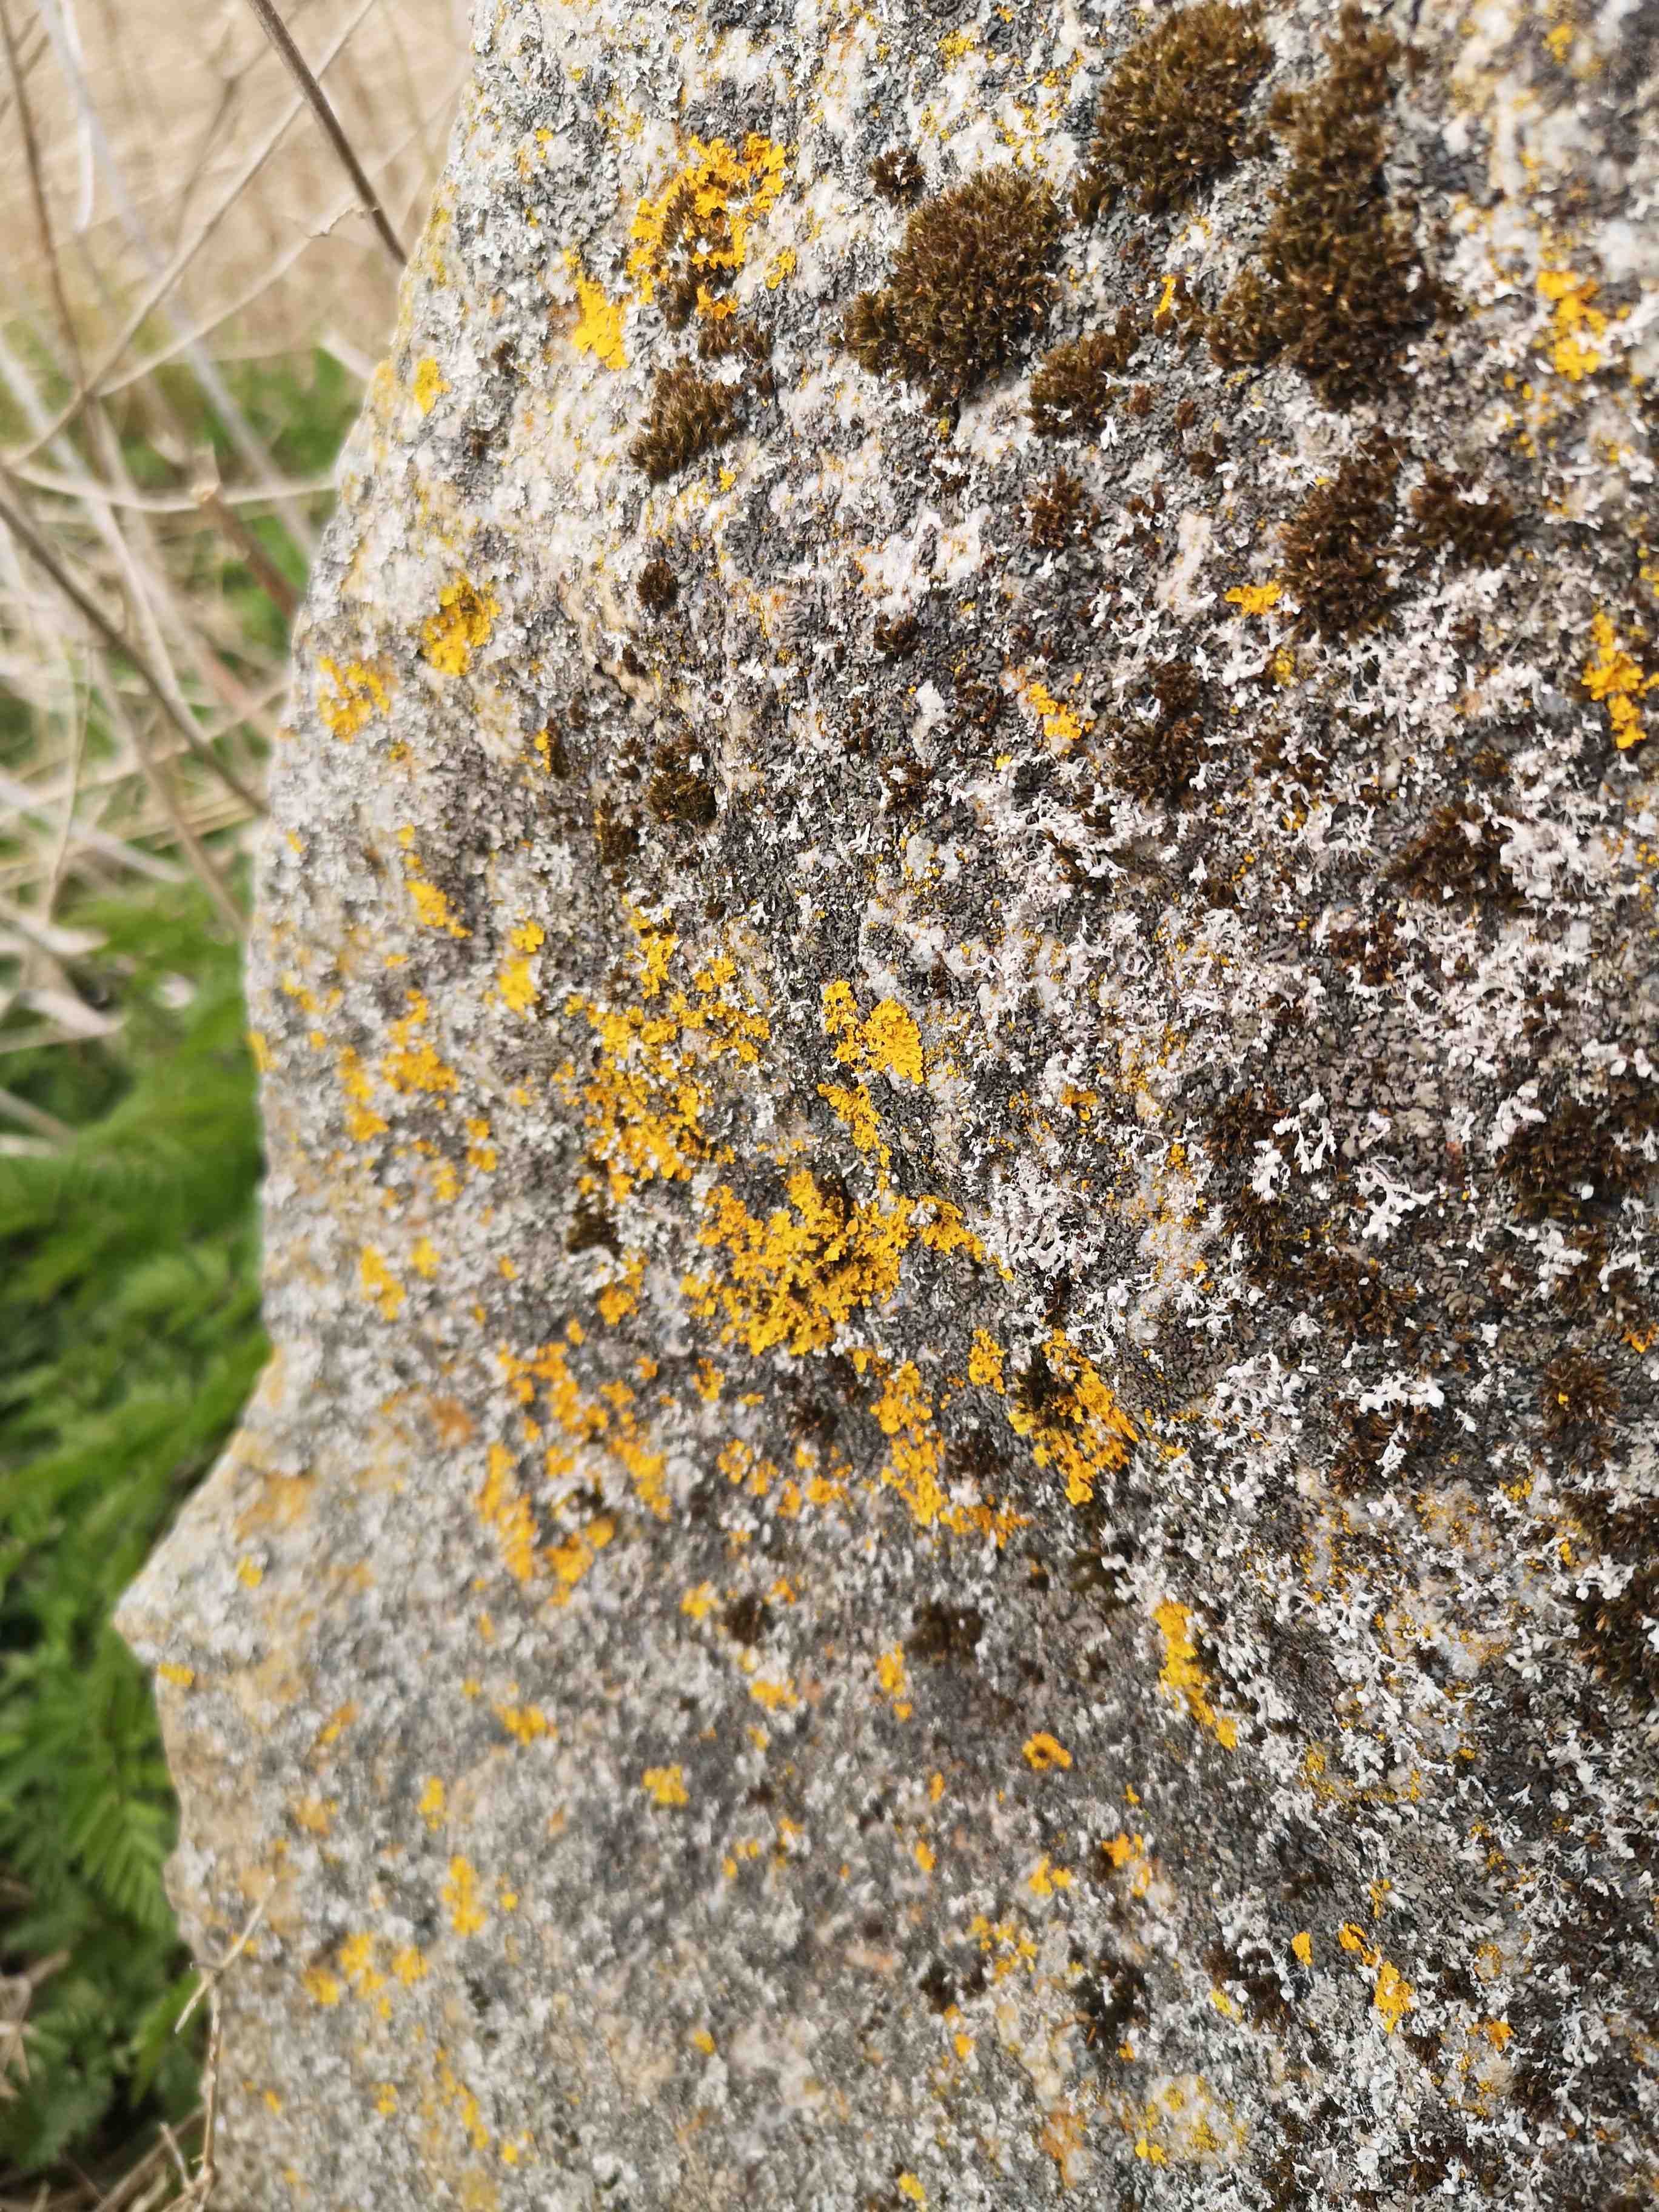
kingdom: Fungi
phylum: Ascomycota
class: Lecanoromycetes
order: Teloschistales
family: Teloschistaceae
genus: Xanthoria
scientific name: Xanthoria parietina
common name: almindelig væggelav
